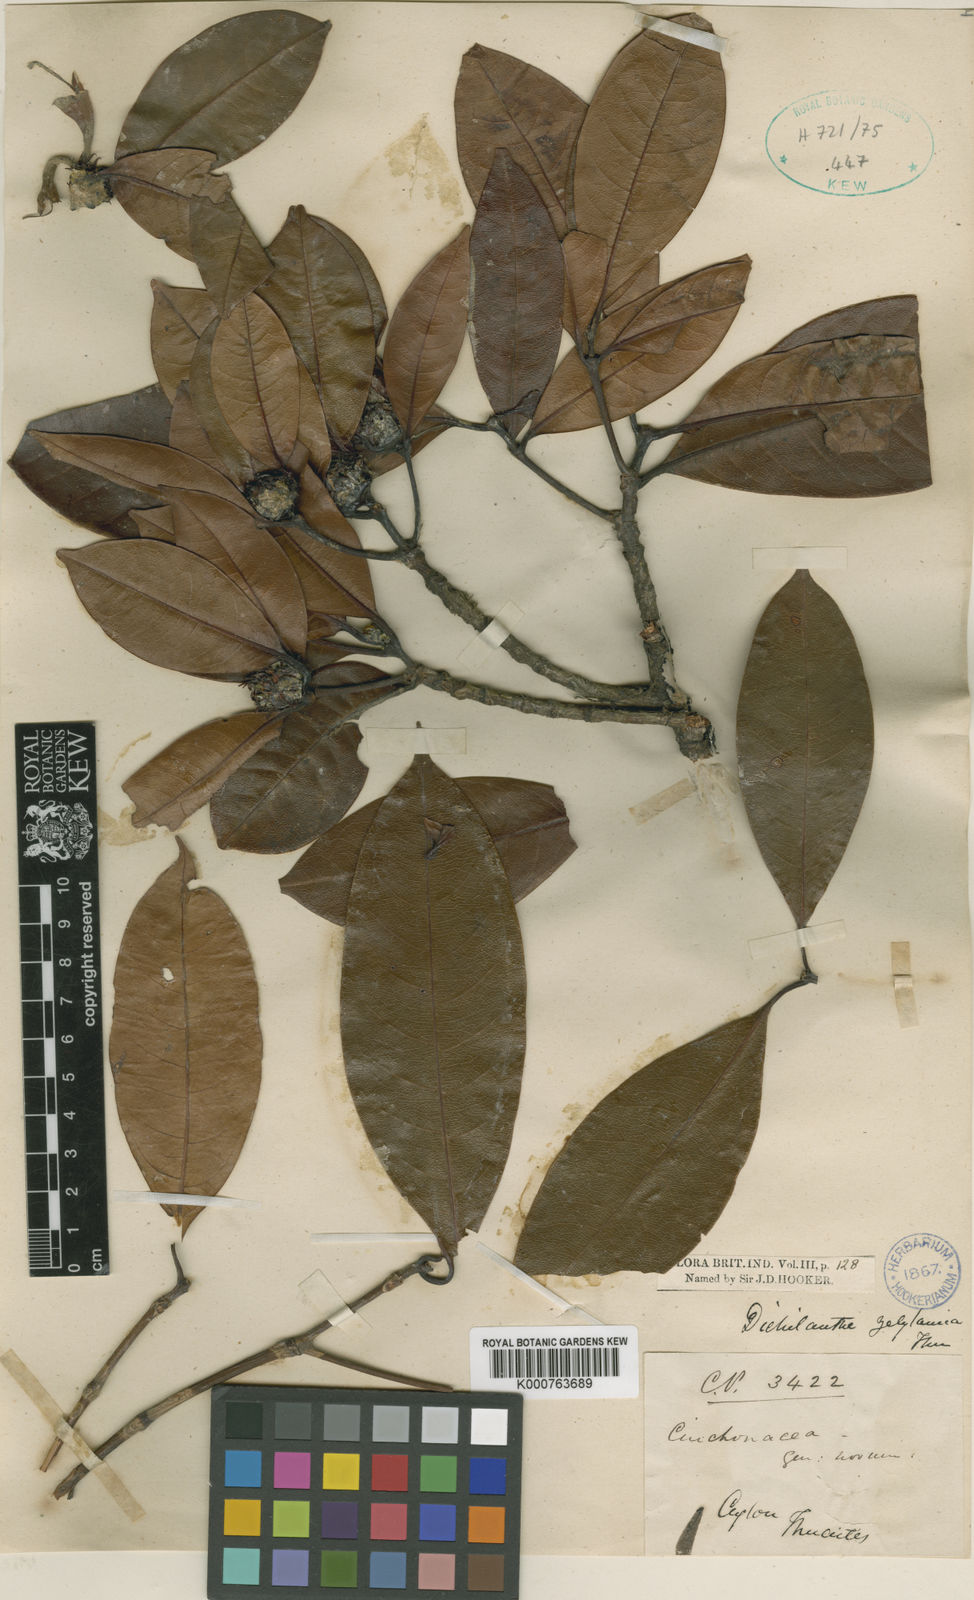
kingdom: Plantae
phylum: Tracheophyta
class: Magnoliopsida
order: Gentianales
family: Rubiaceae
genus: Dichilanthe
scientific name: Dichilanthe zeylanica
